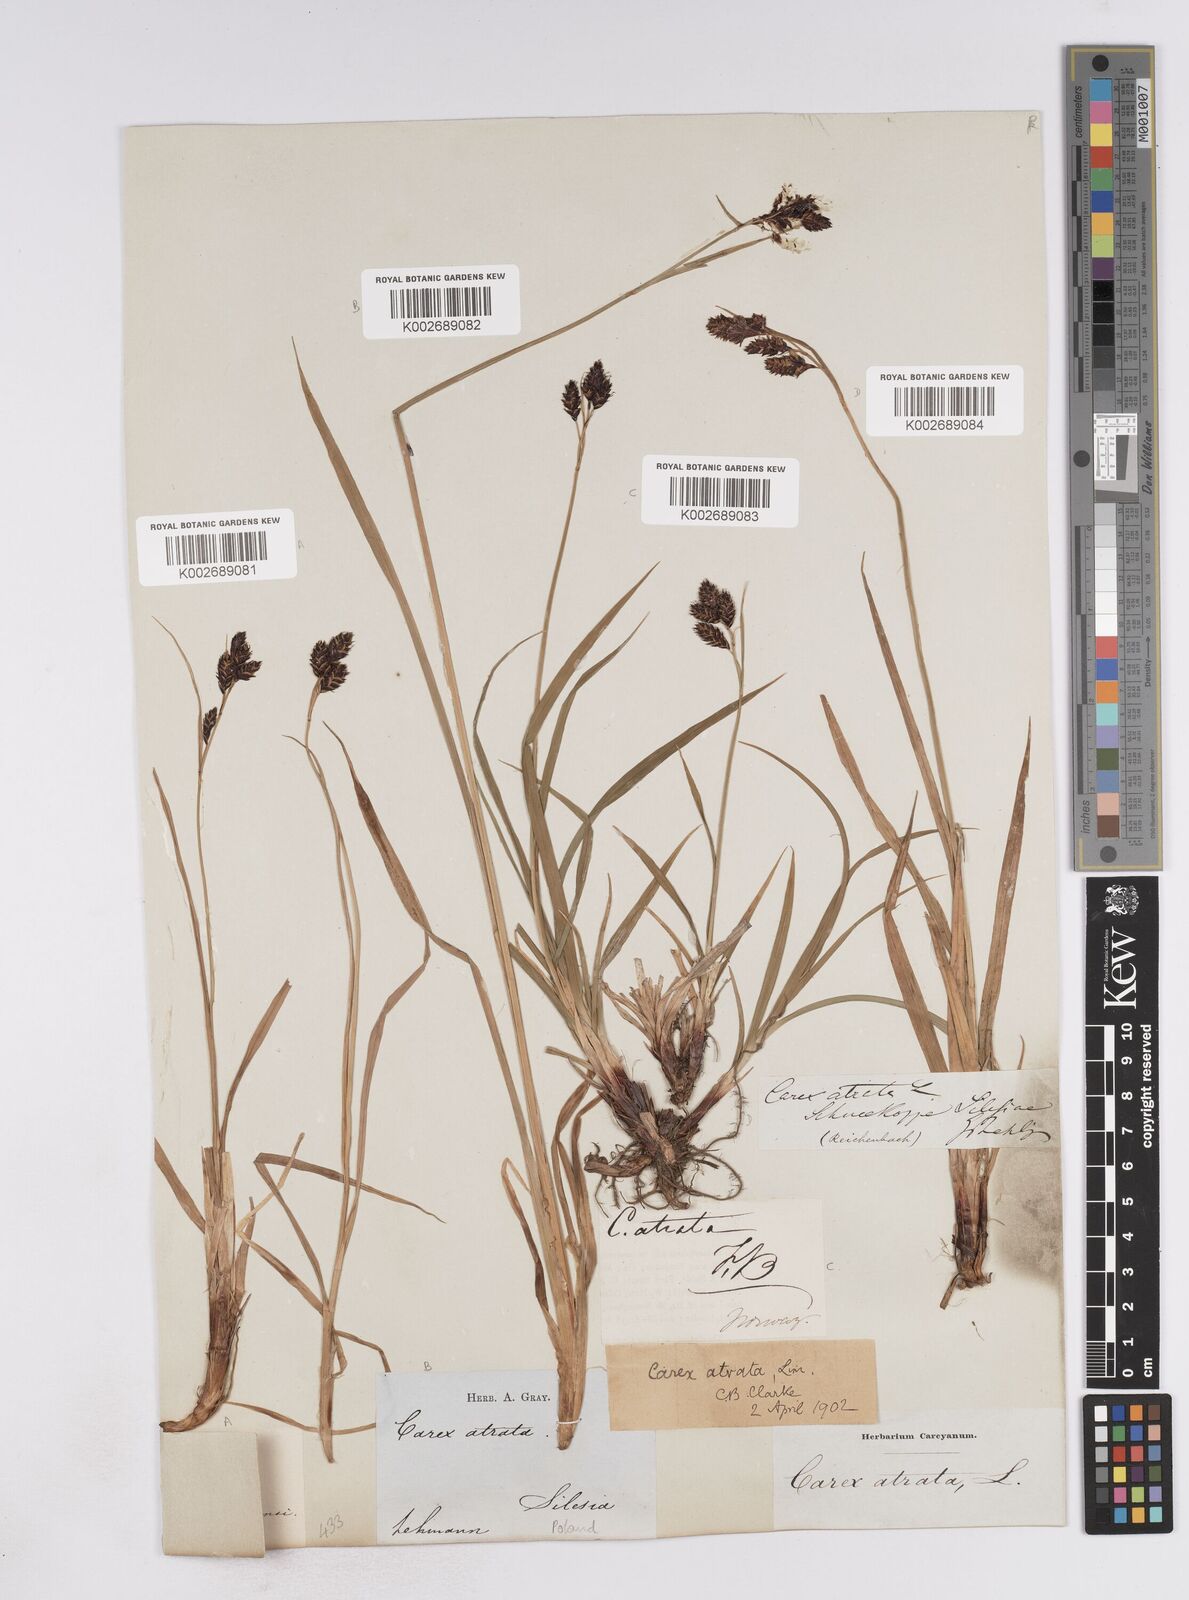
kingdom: Plantae
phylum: Tracheophyta
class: Liliopsida
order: Poales
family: Cyperaceae
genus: Carex
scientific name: Carex atrata
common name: Black alpine sedge
